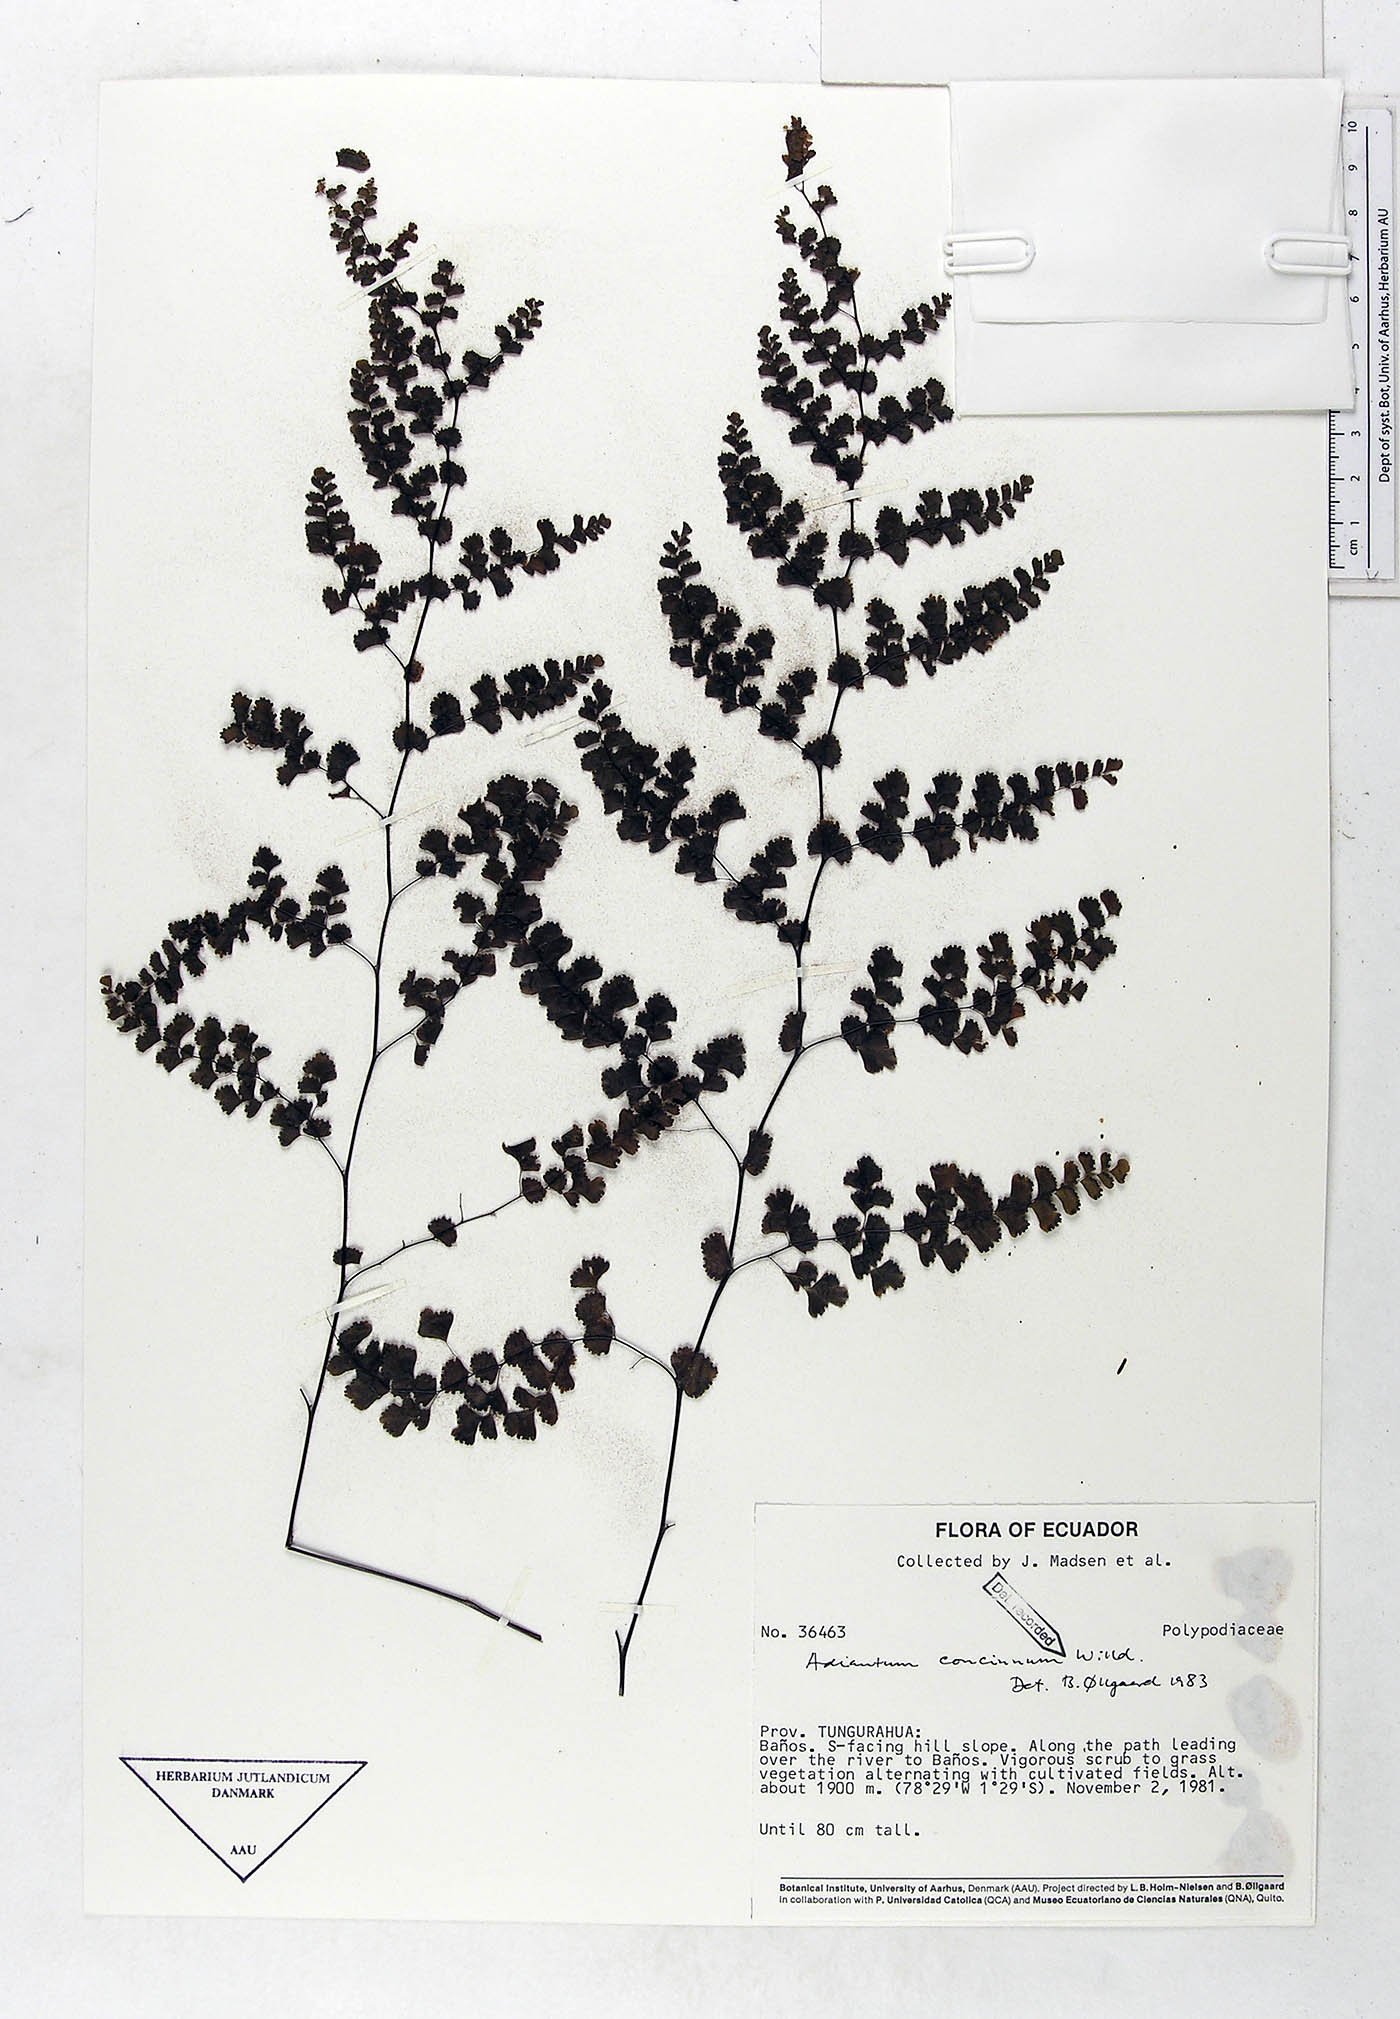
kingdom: Plantae
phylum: Tracheophyta
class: Polypodiopsida
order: Polypodiales
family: Pteridaceae
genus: Adiantum
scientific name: Adiantum concinnum
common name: Brittle maidenhair fern
